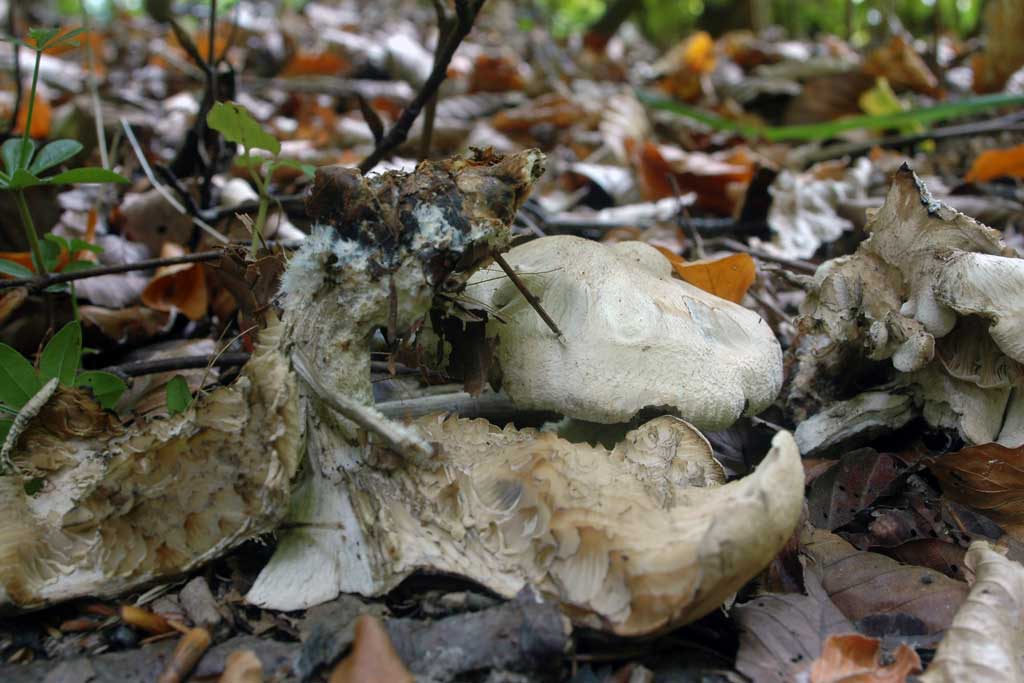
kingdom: Fungi
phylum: Basidiomycota
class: Agaricomycetes
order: Agaricales
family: Lyophyllaceae
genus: Calocybe
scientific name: Calocybe gangraenosa
